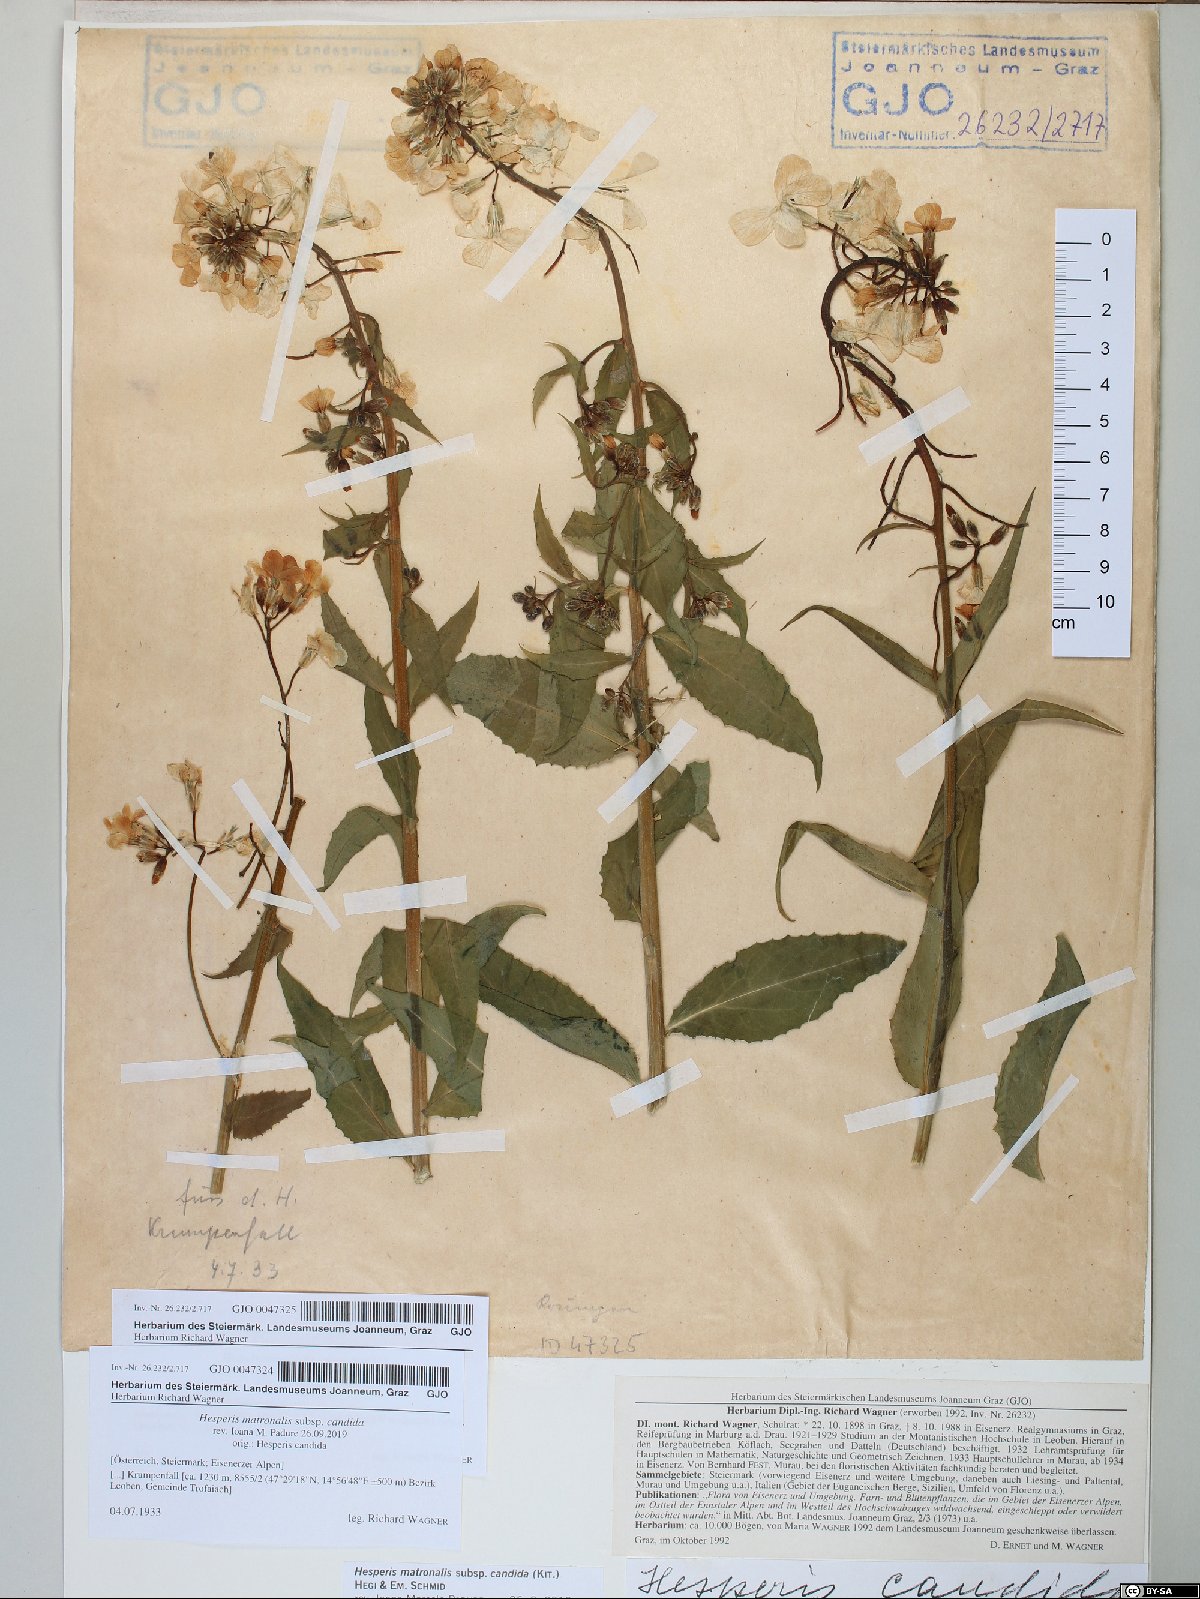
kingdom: Plantae
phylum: Tracheophyta
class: Magnoliopsida
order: Brassicales
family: Brassicaceae
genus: Hesperis
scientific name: Hesperis matronalis
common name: Dame's-violet
